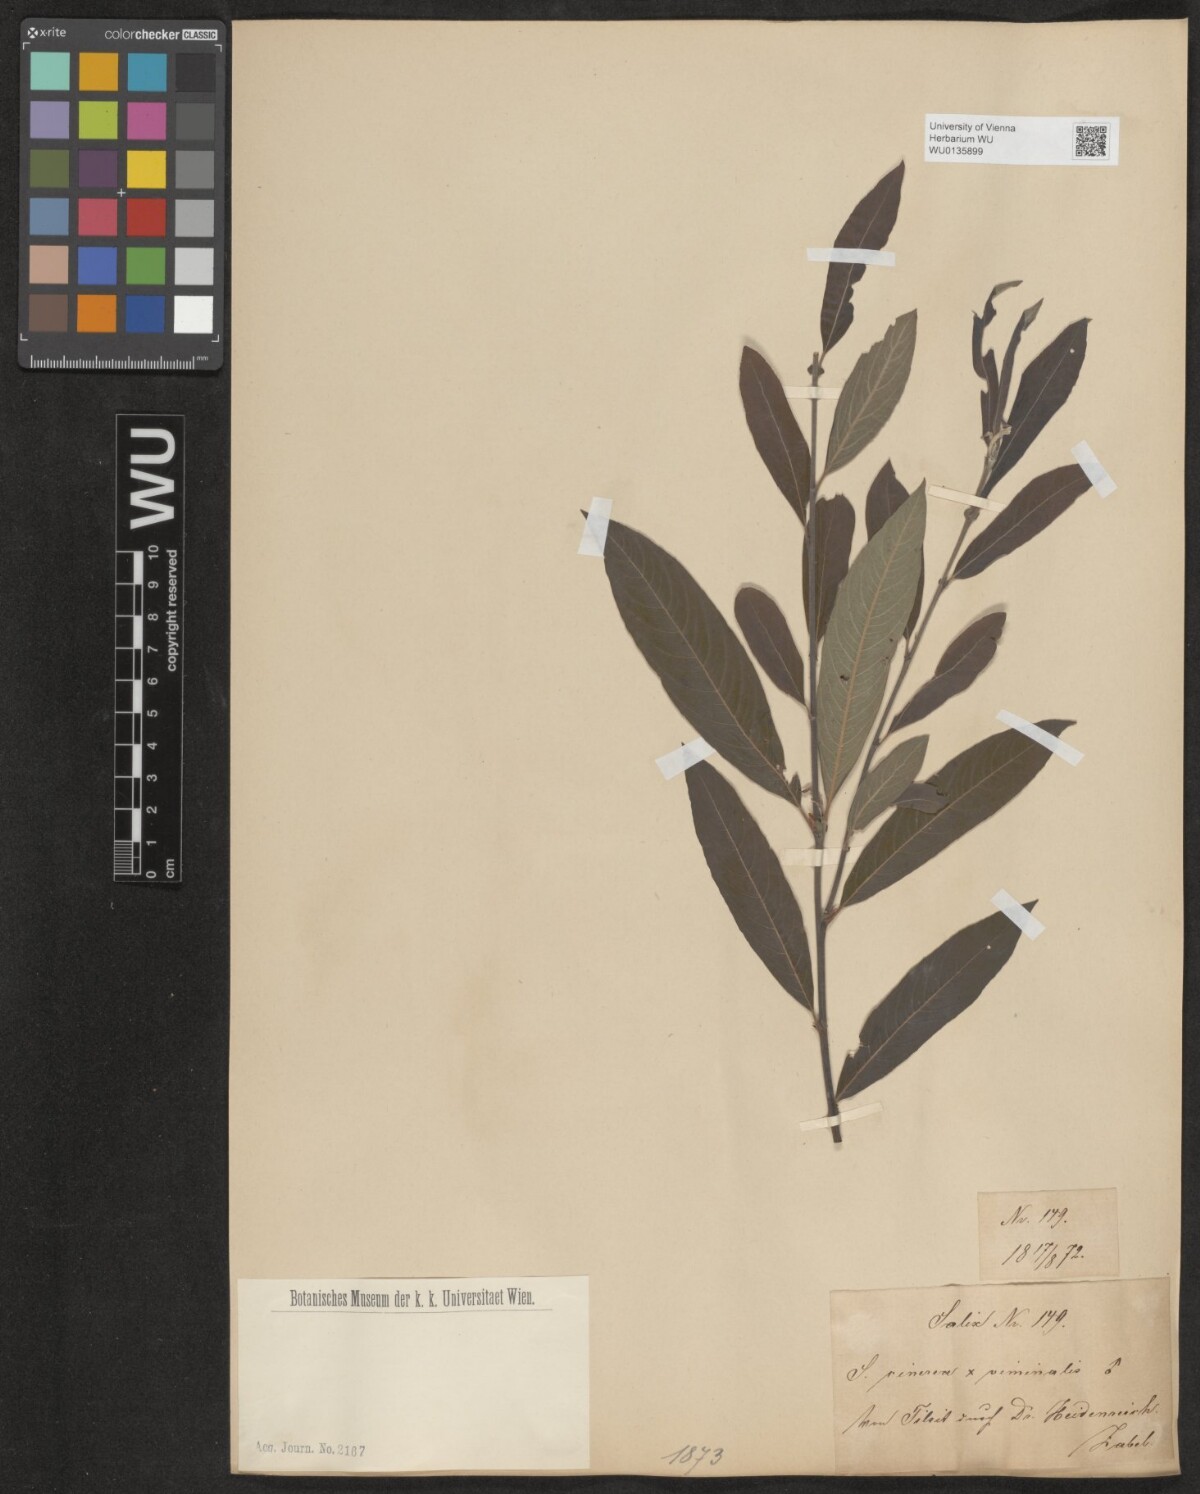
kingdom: Plantae
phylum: Tracheophyta
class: Magnoliopsida
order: Malpighiales
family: Salicaceae
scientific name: Salicaceae
